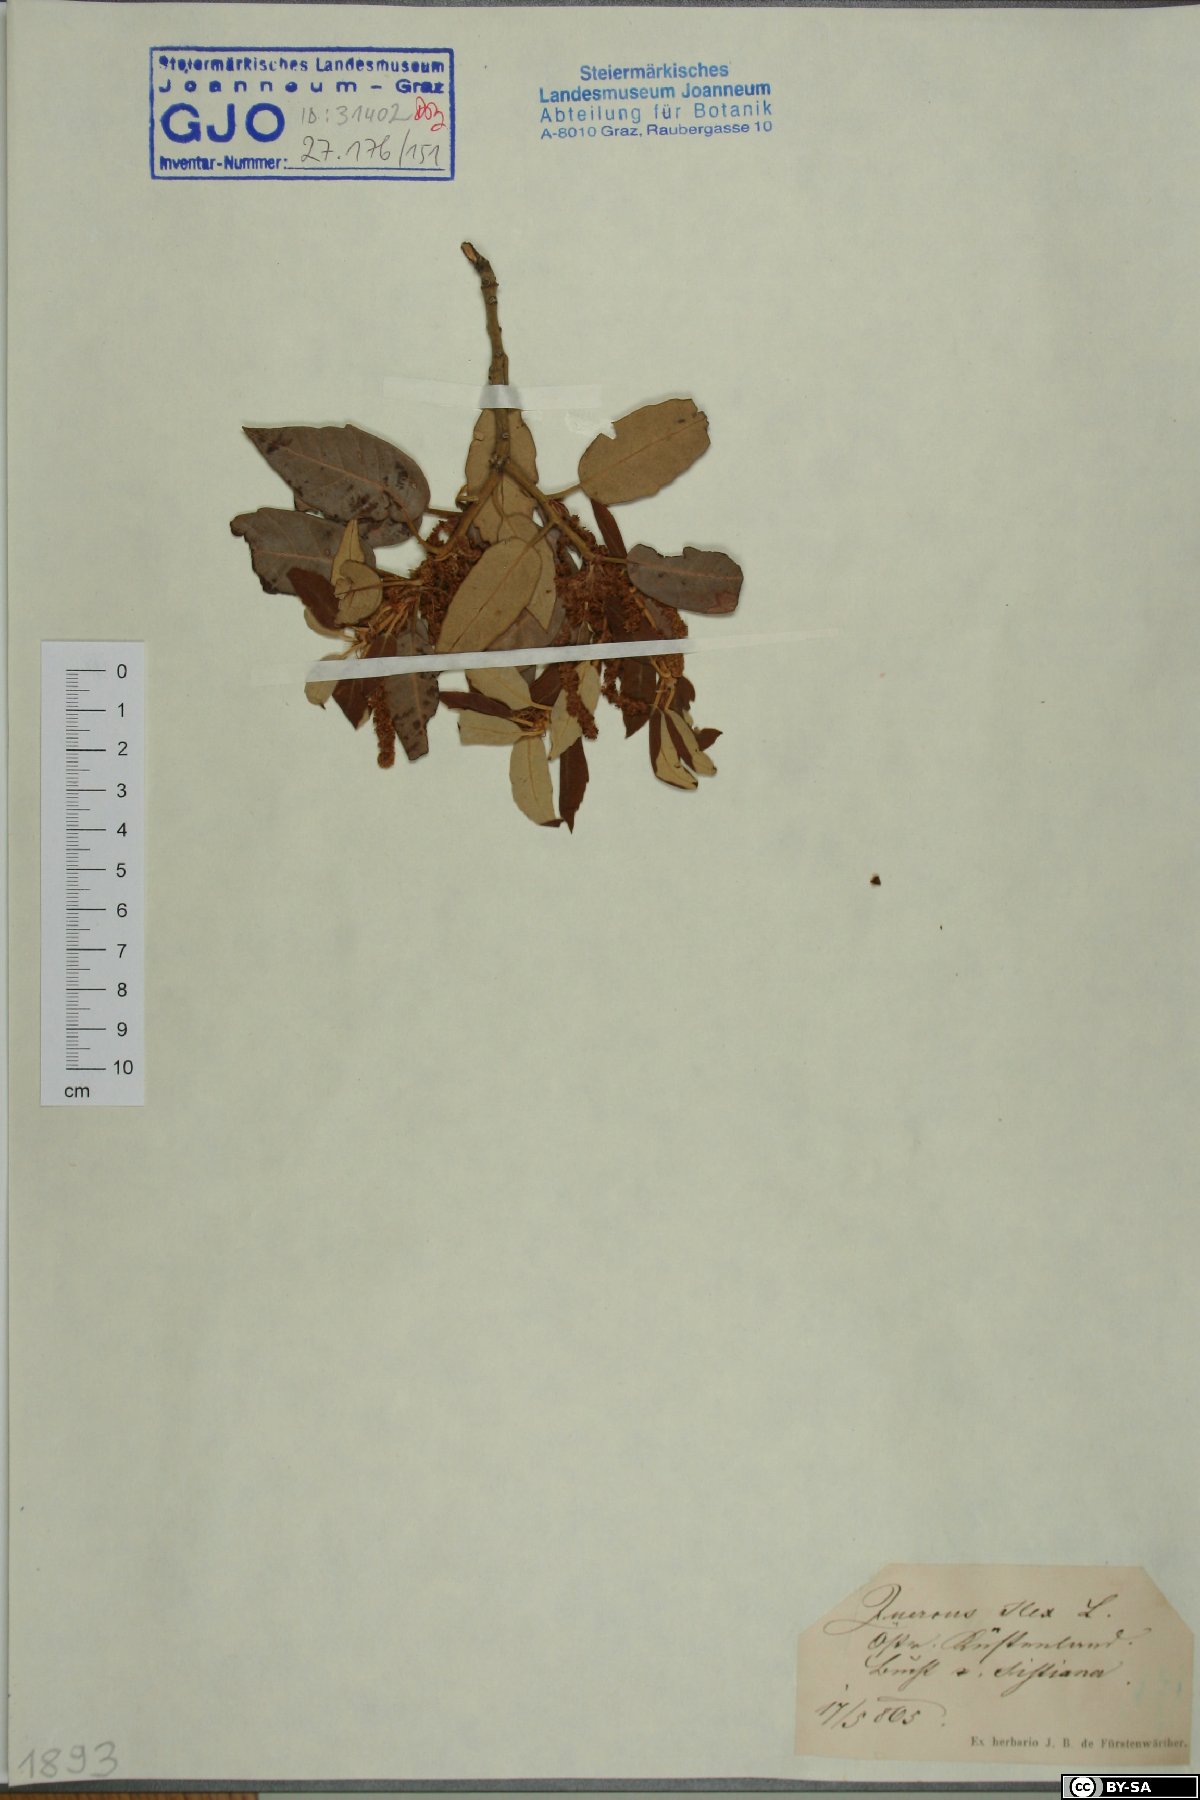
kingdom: Plantae
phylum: Tracheophyta
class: Magnoliopsida
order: Fagales
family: Fagaceae
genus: Quercus
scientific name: Quercus ilex
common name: Evergreen oak
